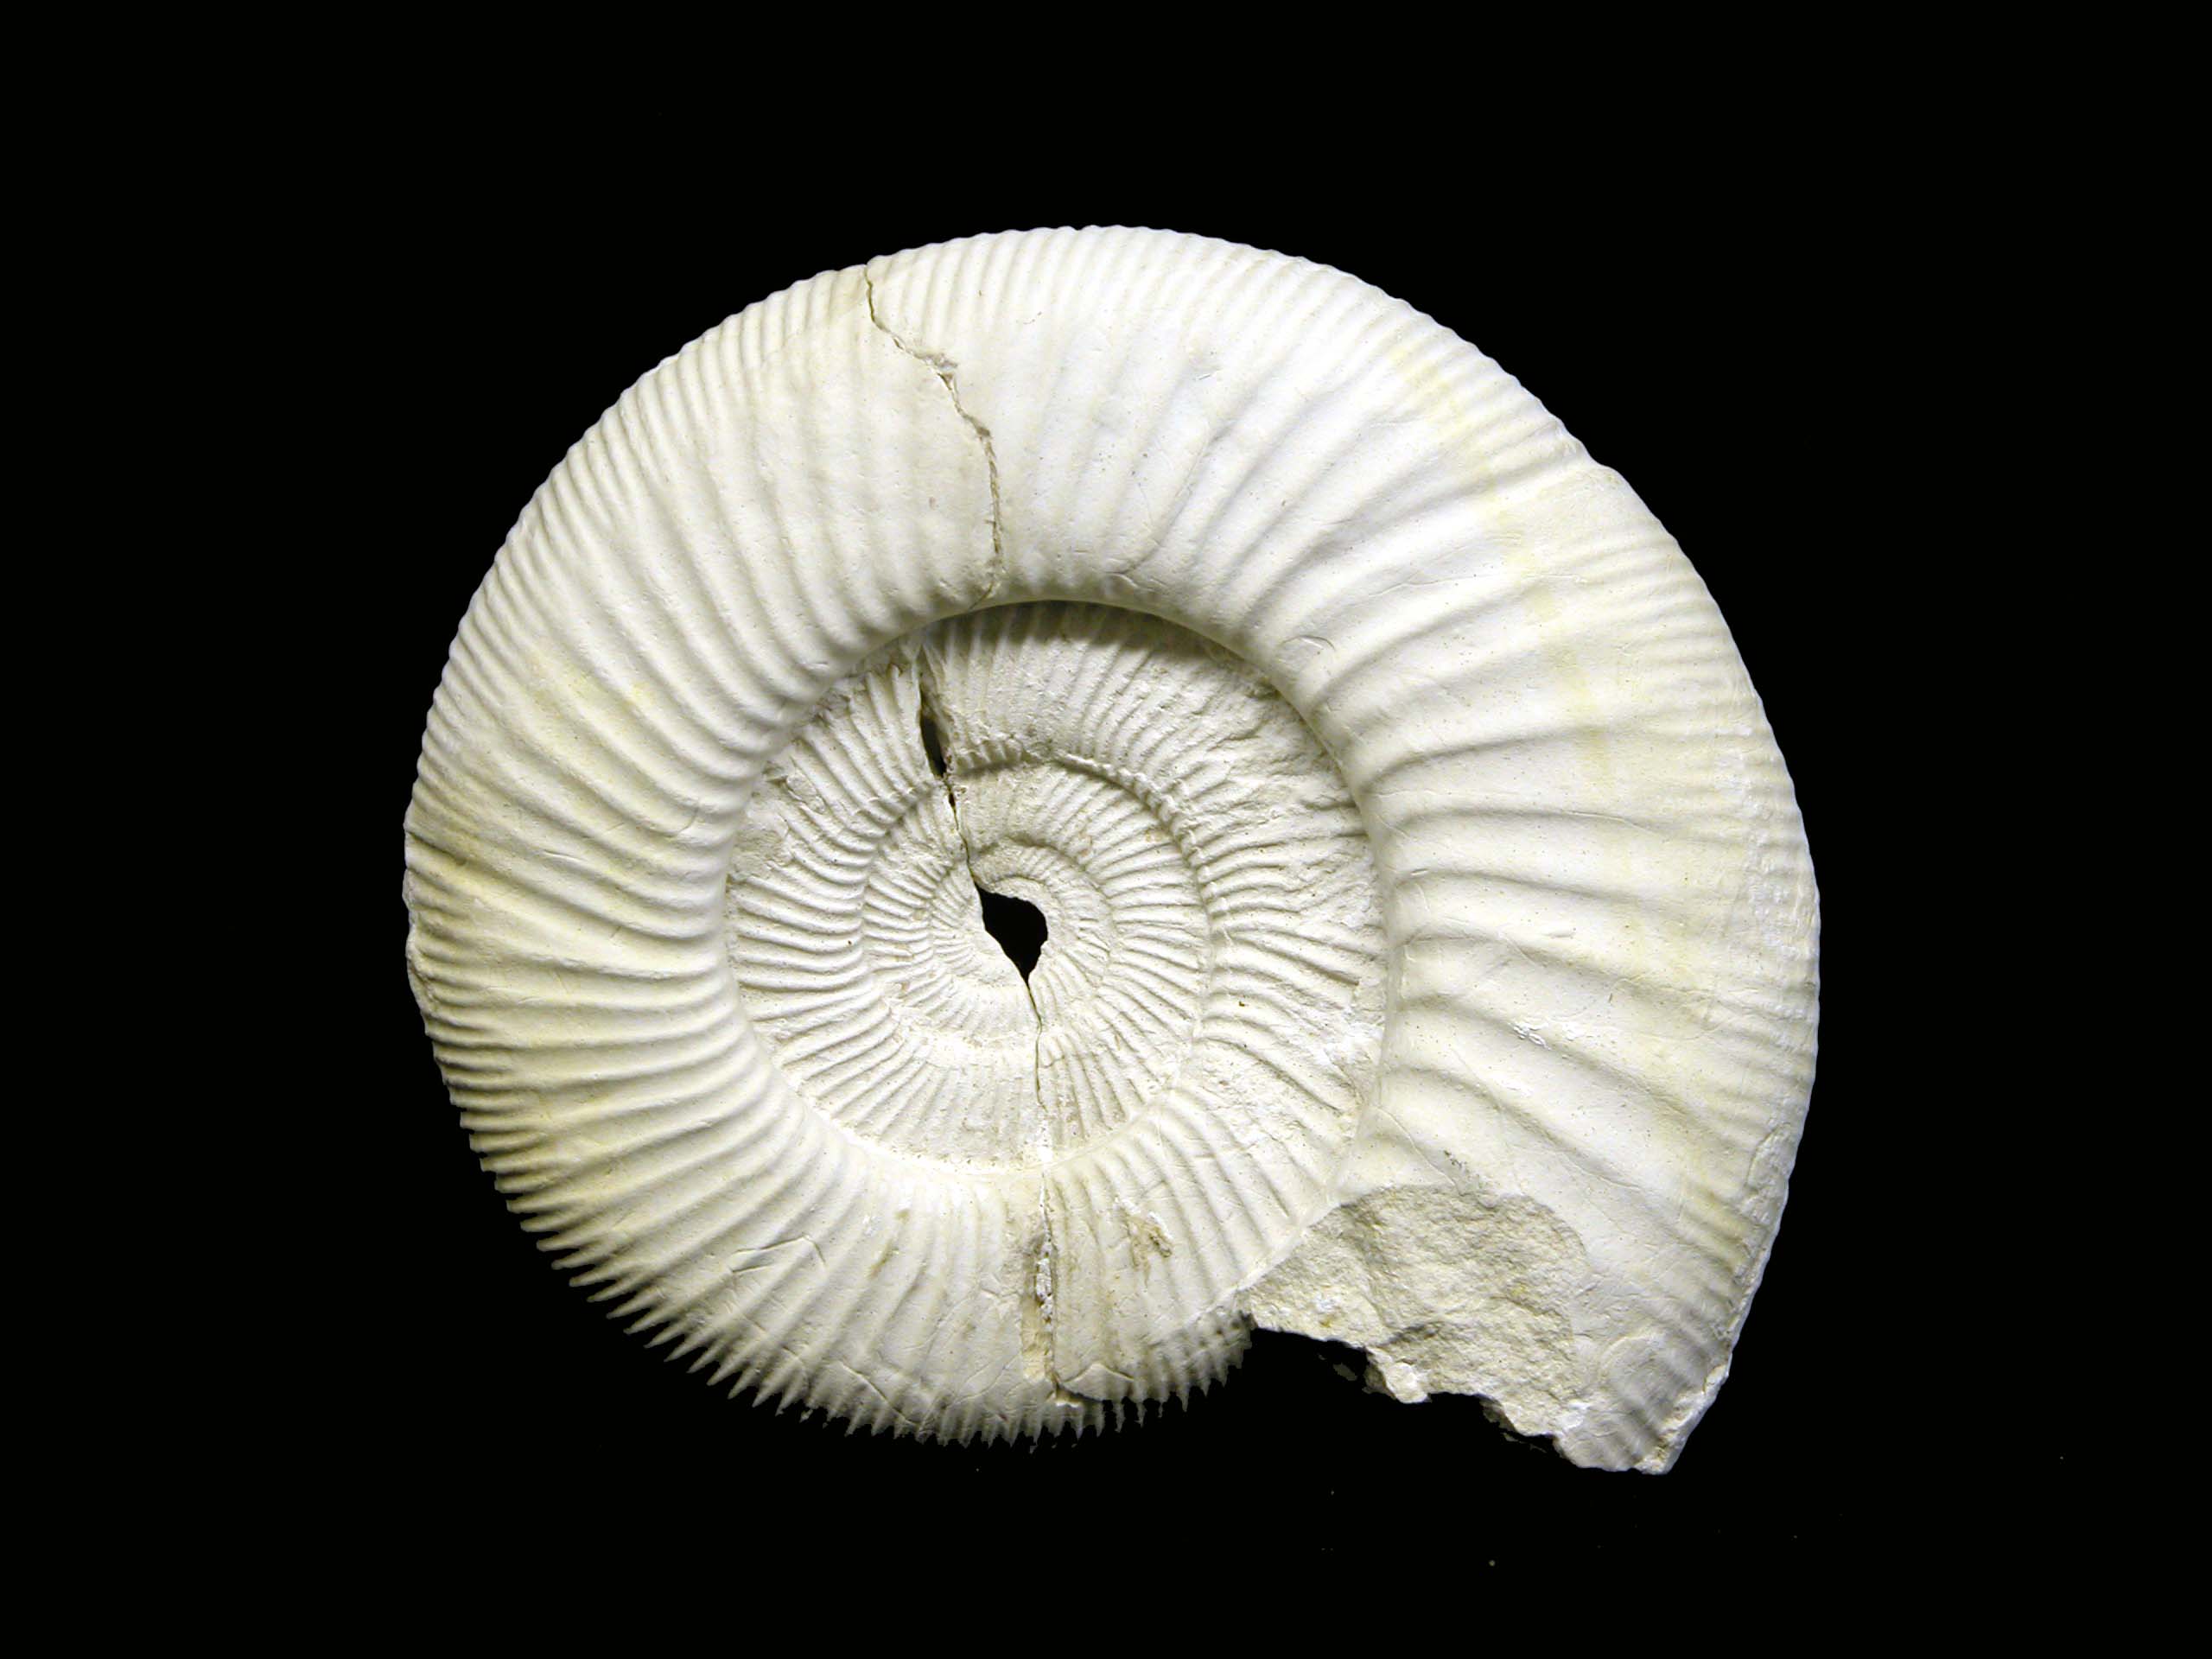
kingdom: Animalia
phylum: Mollusca
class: Cephalopoda
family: Perisphinctidae
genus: Perisphinctes
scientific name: Perisphinctes
